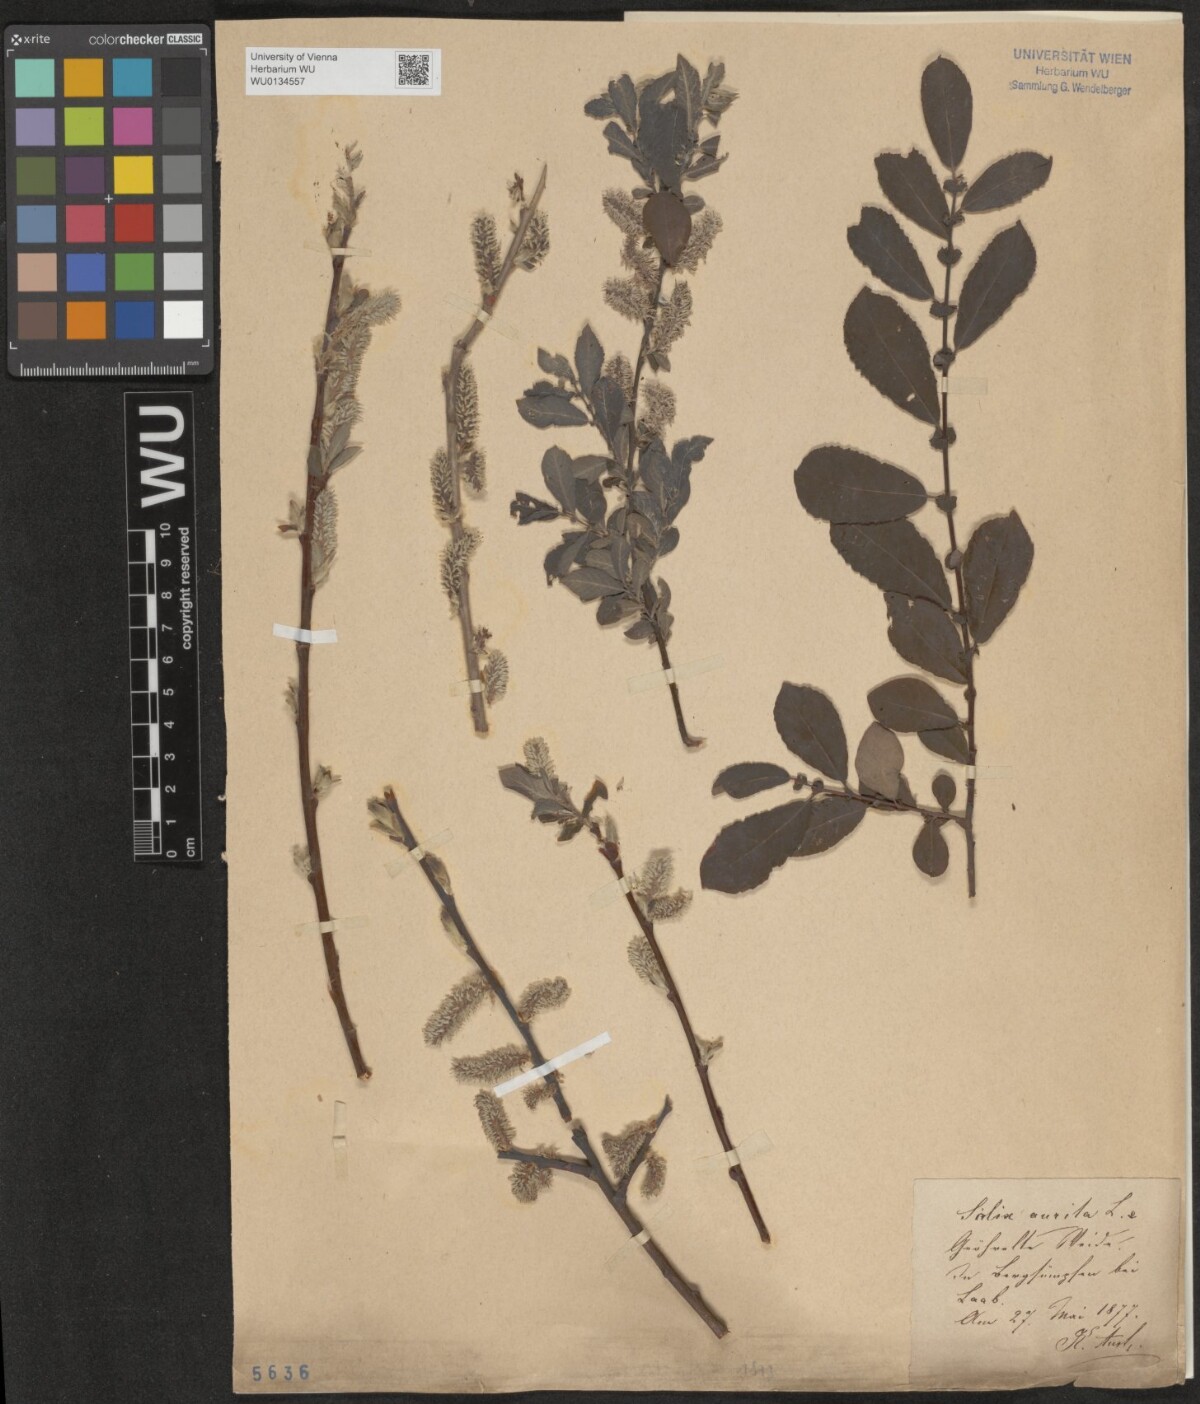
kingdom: Plantae
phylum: Tracheophyta
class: Magnoliopsida
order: Malpighiales
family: Salicaceae
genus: Salix
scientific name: Salix aurita
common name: Eared willow
